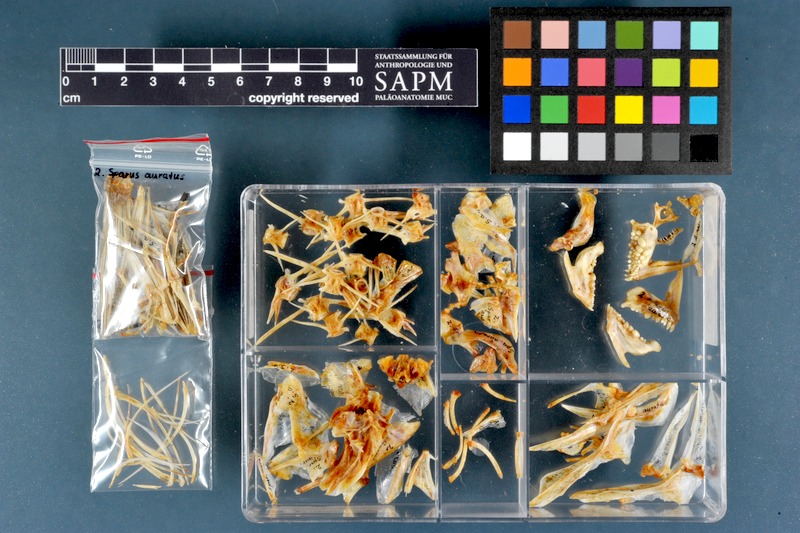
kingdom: Animalia
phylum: Chordata
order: Perciformes
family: Sparidae
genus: Sparus
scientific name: Sparus aurata
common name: Gilthead
